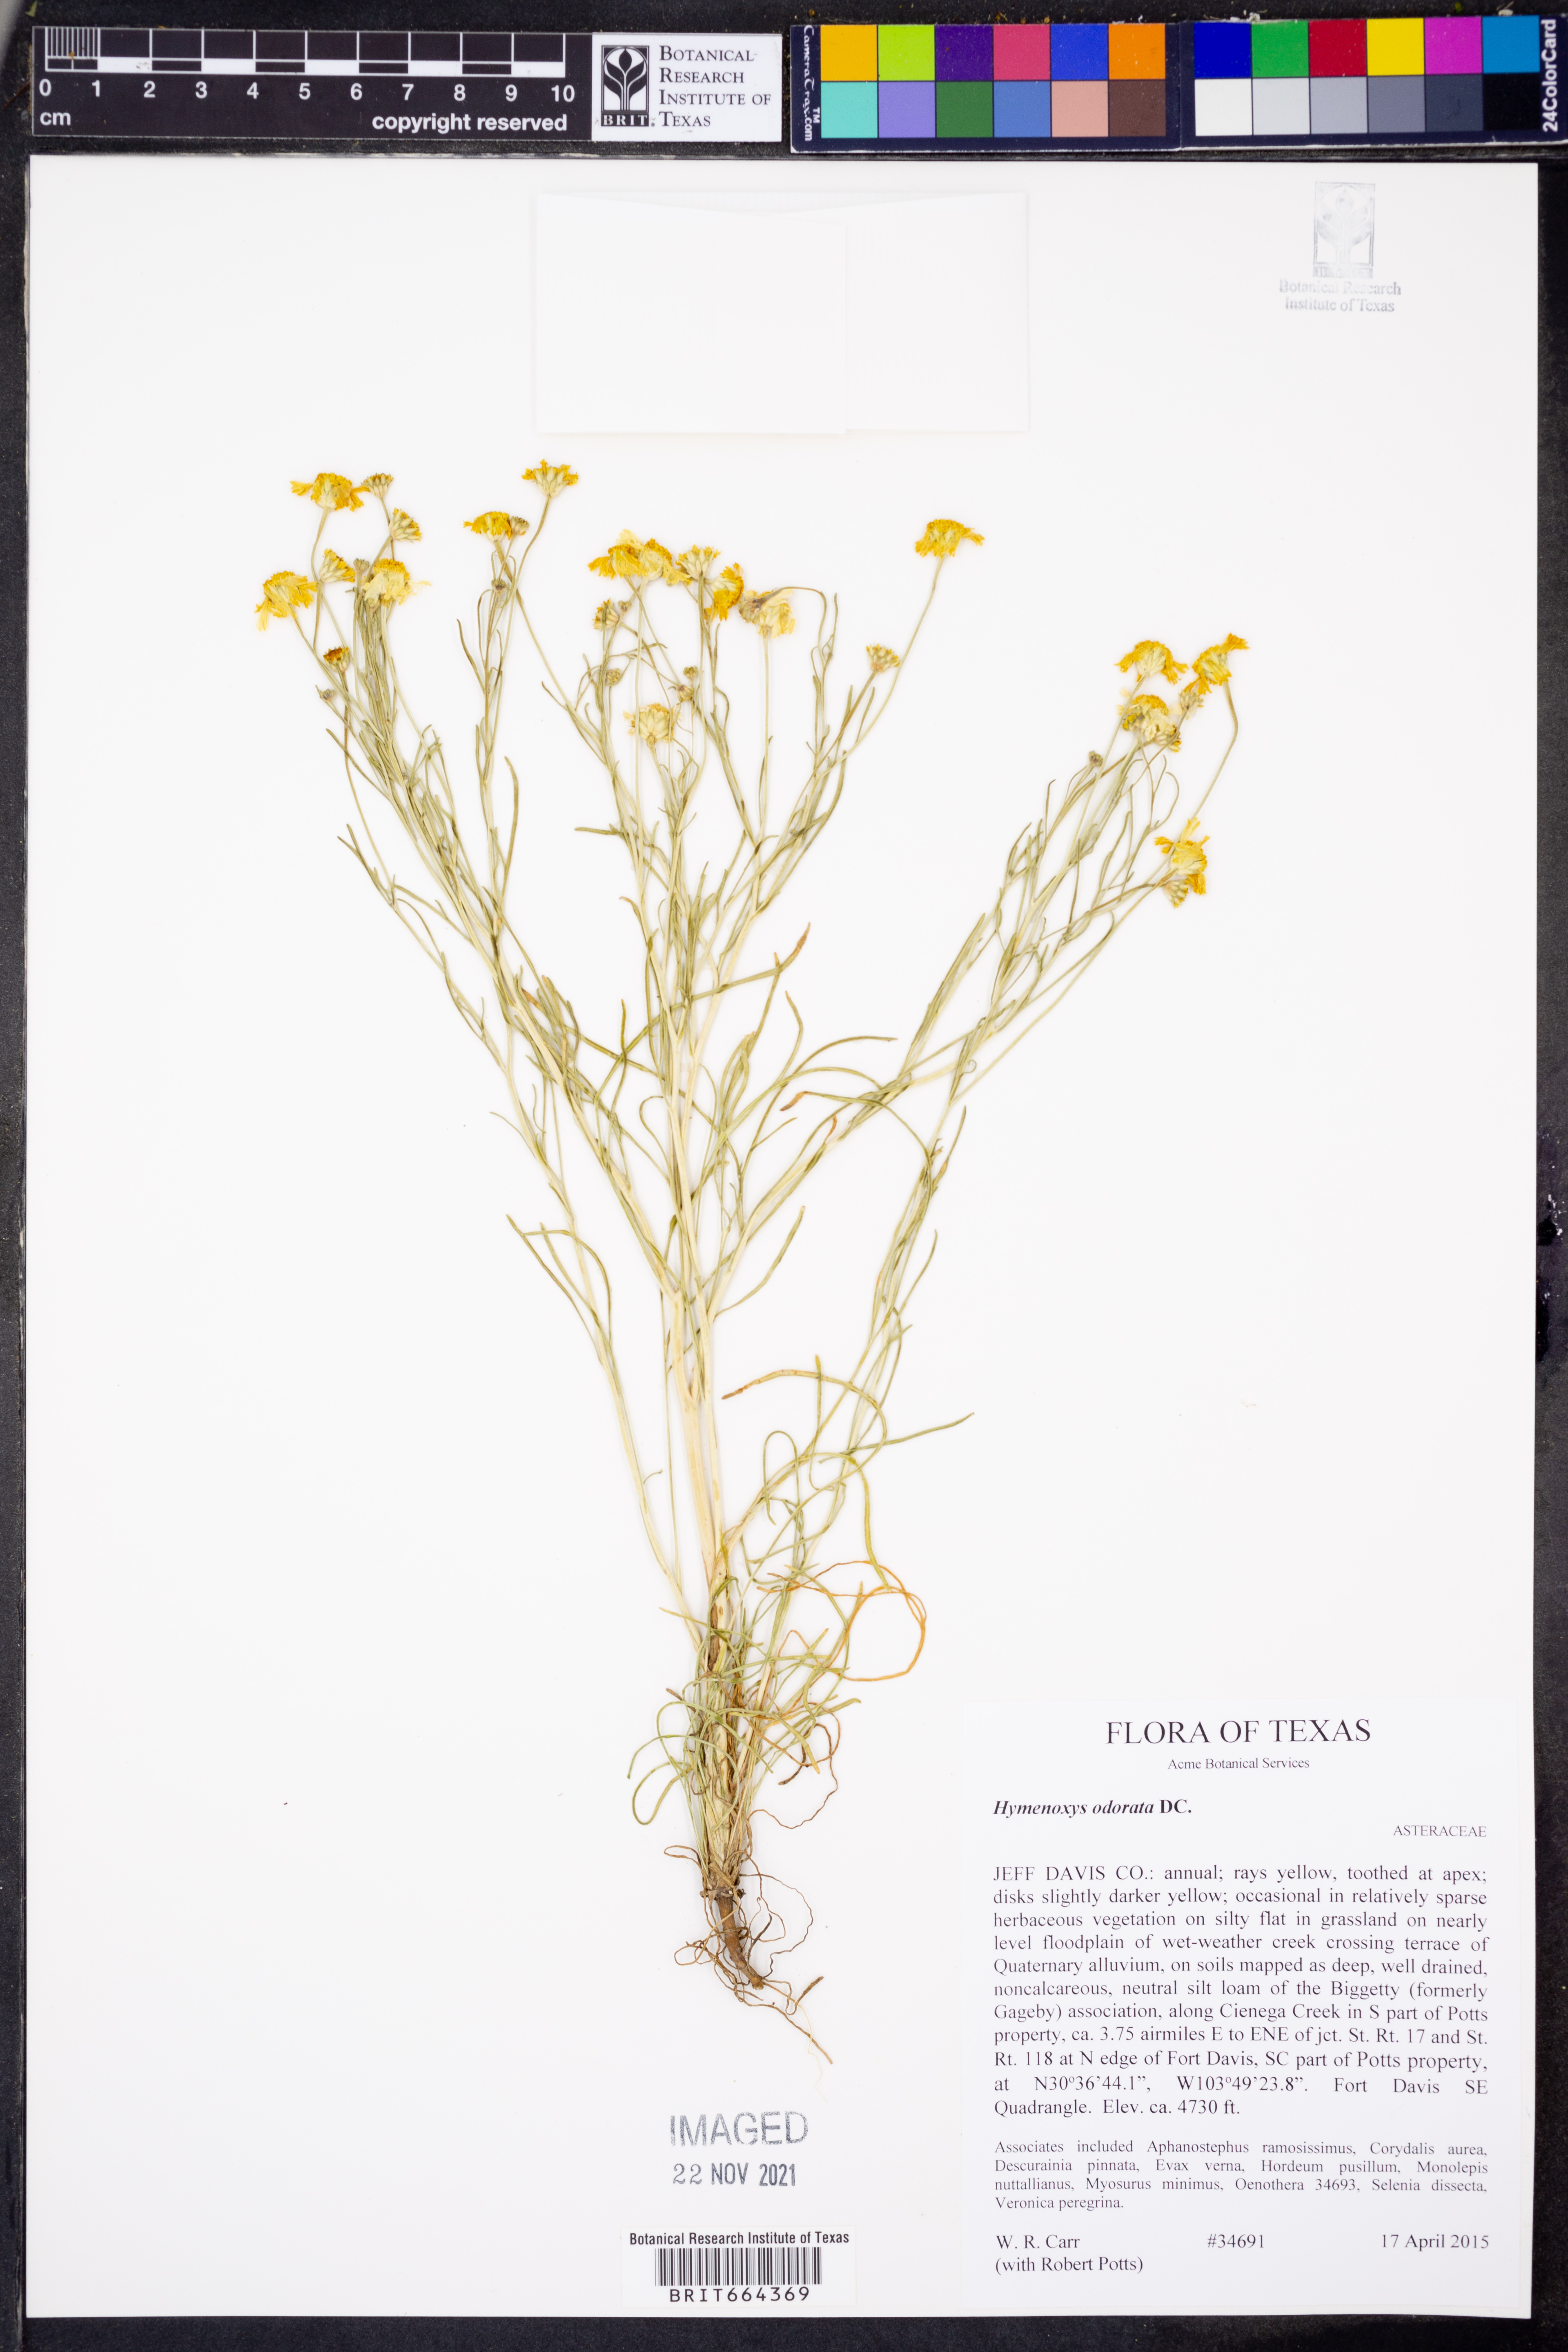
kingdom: Plantae
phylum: Tracheophyta
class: Magnoliopsida
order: Asterales
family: Asteraceae
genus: Hymenoxys
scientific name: Hymenoxys odorata
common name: Bitter rubberweed
